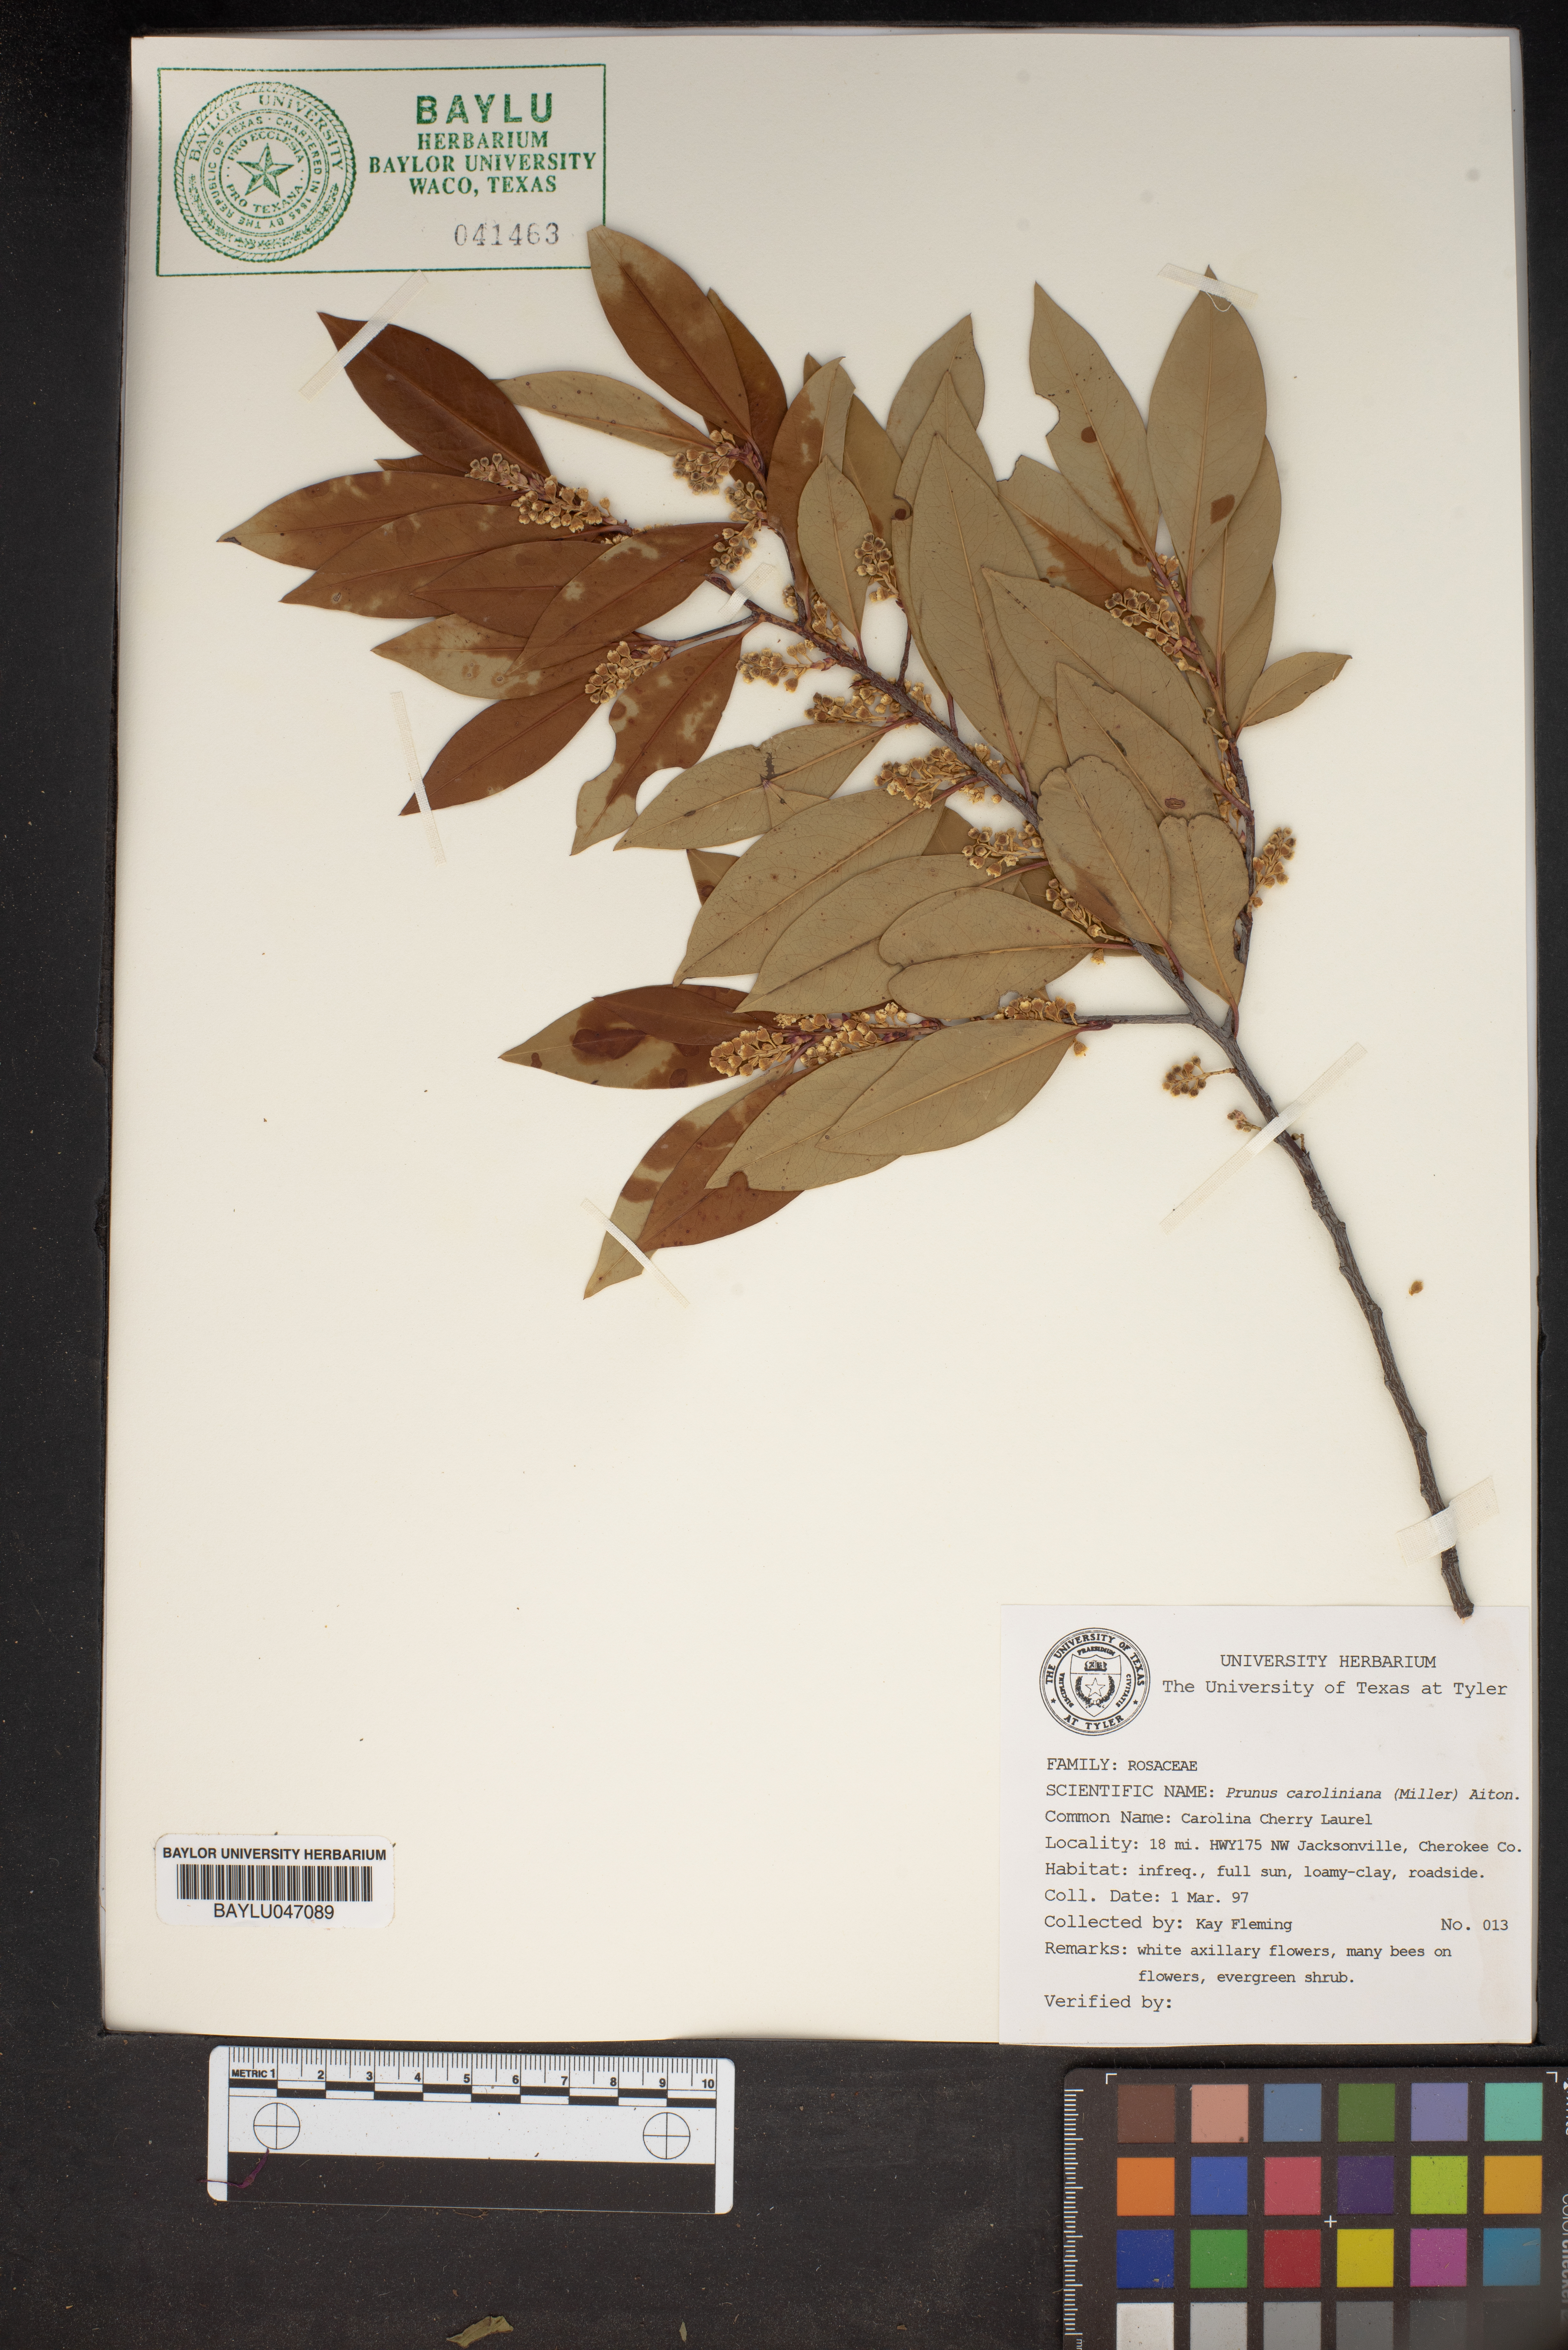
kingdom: Plantae
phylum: Tracheophyta
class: Magnoliopsida
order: Rosales
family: Rosaceae
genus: Prunus
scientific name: Prunus caroliniana
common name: Carolina laurel cherry
